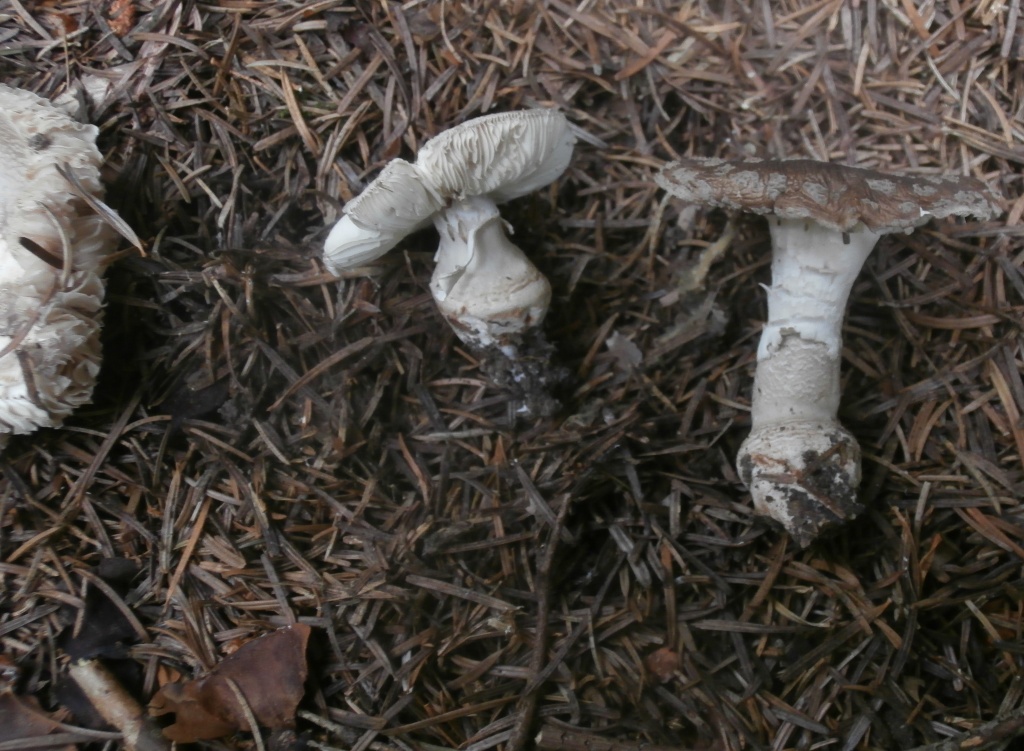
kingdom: Fungi
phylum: Basidiomycota
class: Agaricomycetes
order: Agaricales
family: Amanitaceae
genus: Amanita
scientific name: Amanita
